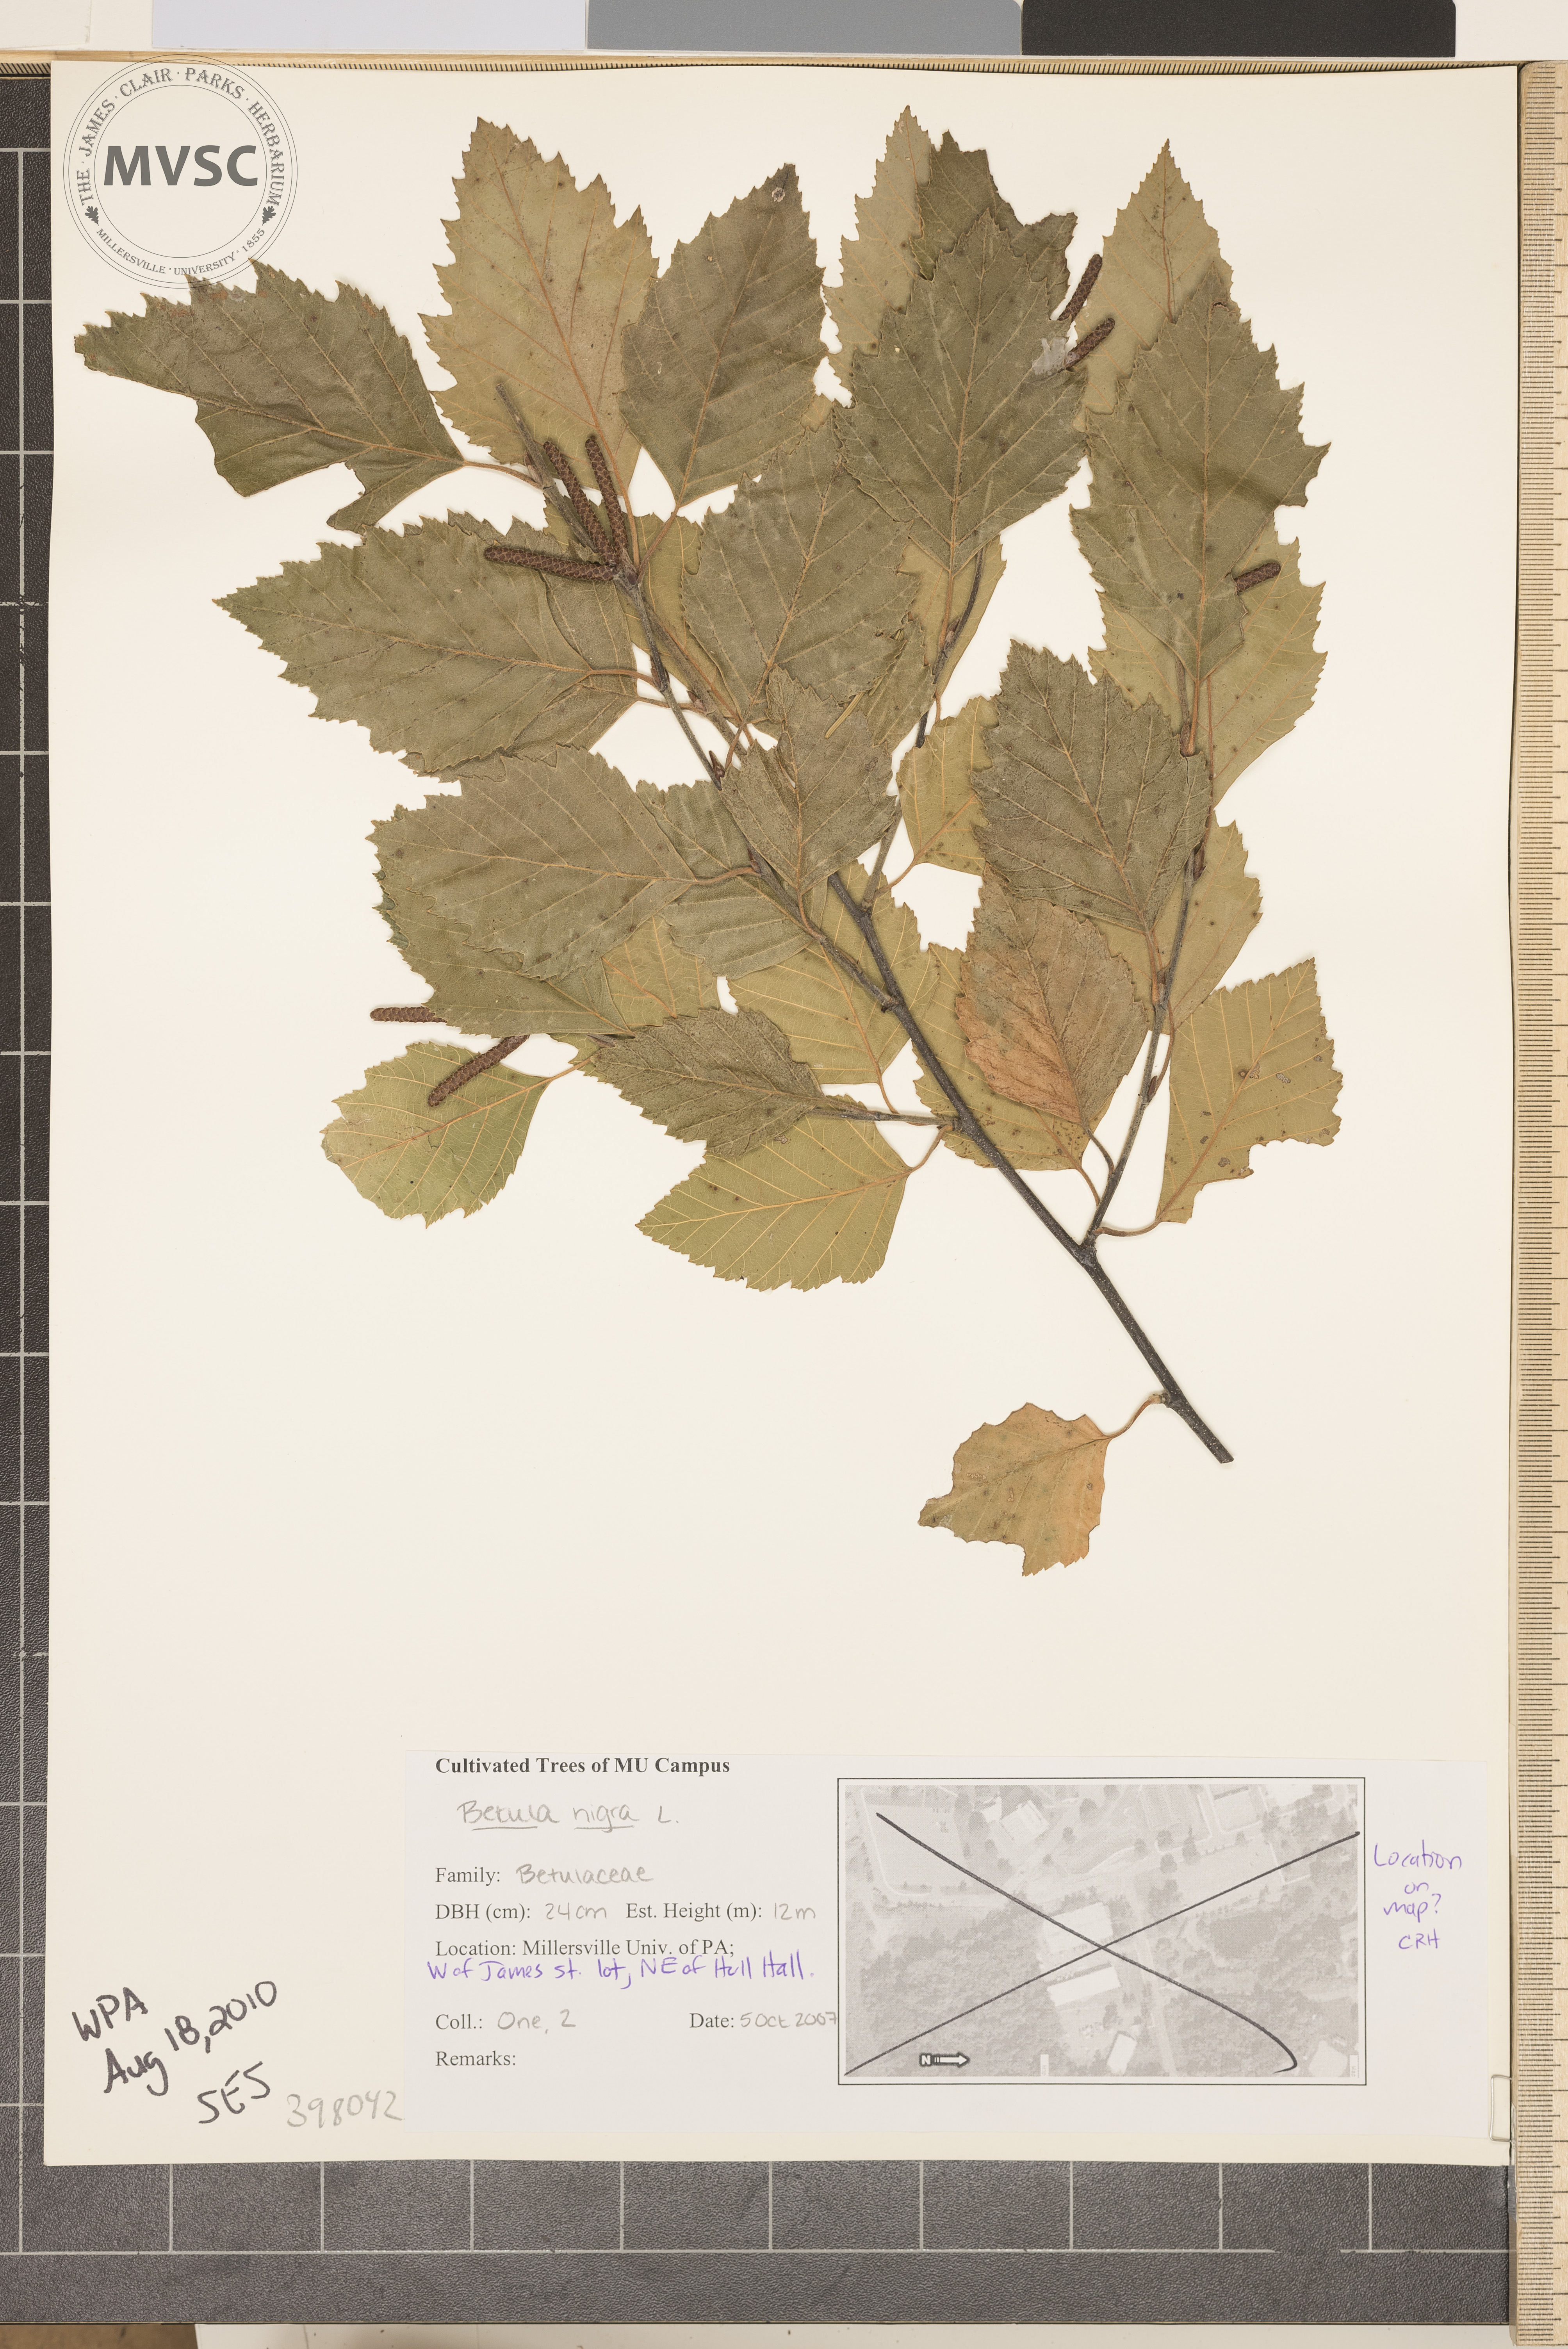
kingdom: Plantae
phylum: Tracheophyta
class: Magnoliopsida
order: Fagales
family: Betulaceae
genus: Betula
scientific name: Betula nigra
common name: River birch
